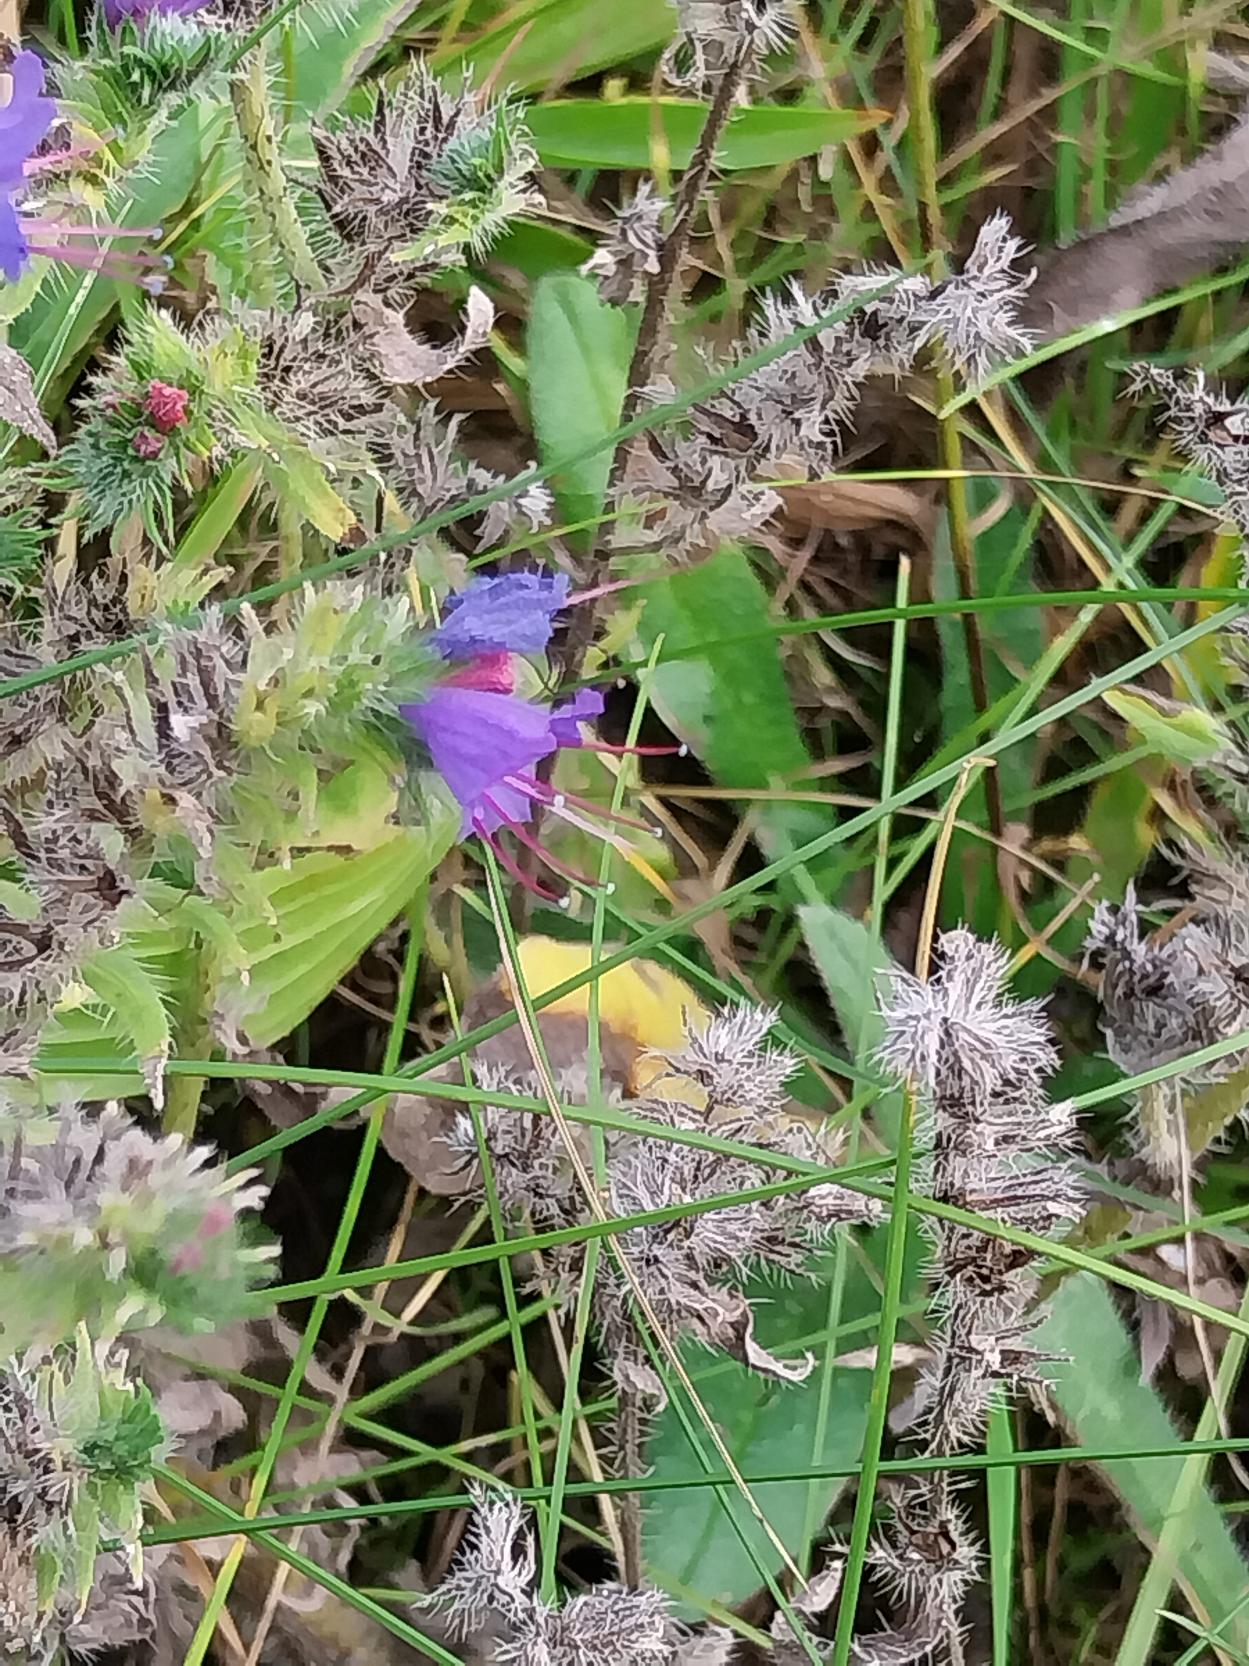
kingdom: Plantae
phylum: Tracheophyta
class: Magnoliopsida
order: Boraginales
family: Boraginaceae
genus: Echium
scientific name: Echium vulgare
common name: Slangehoved
